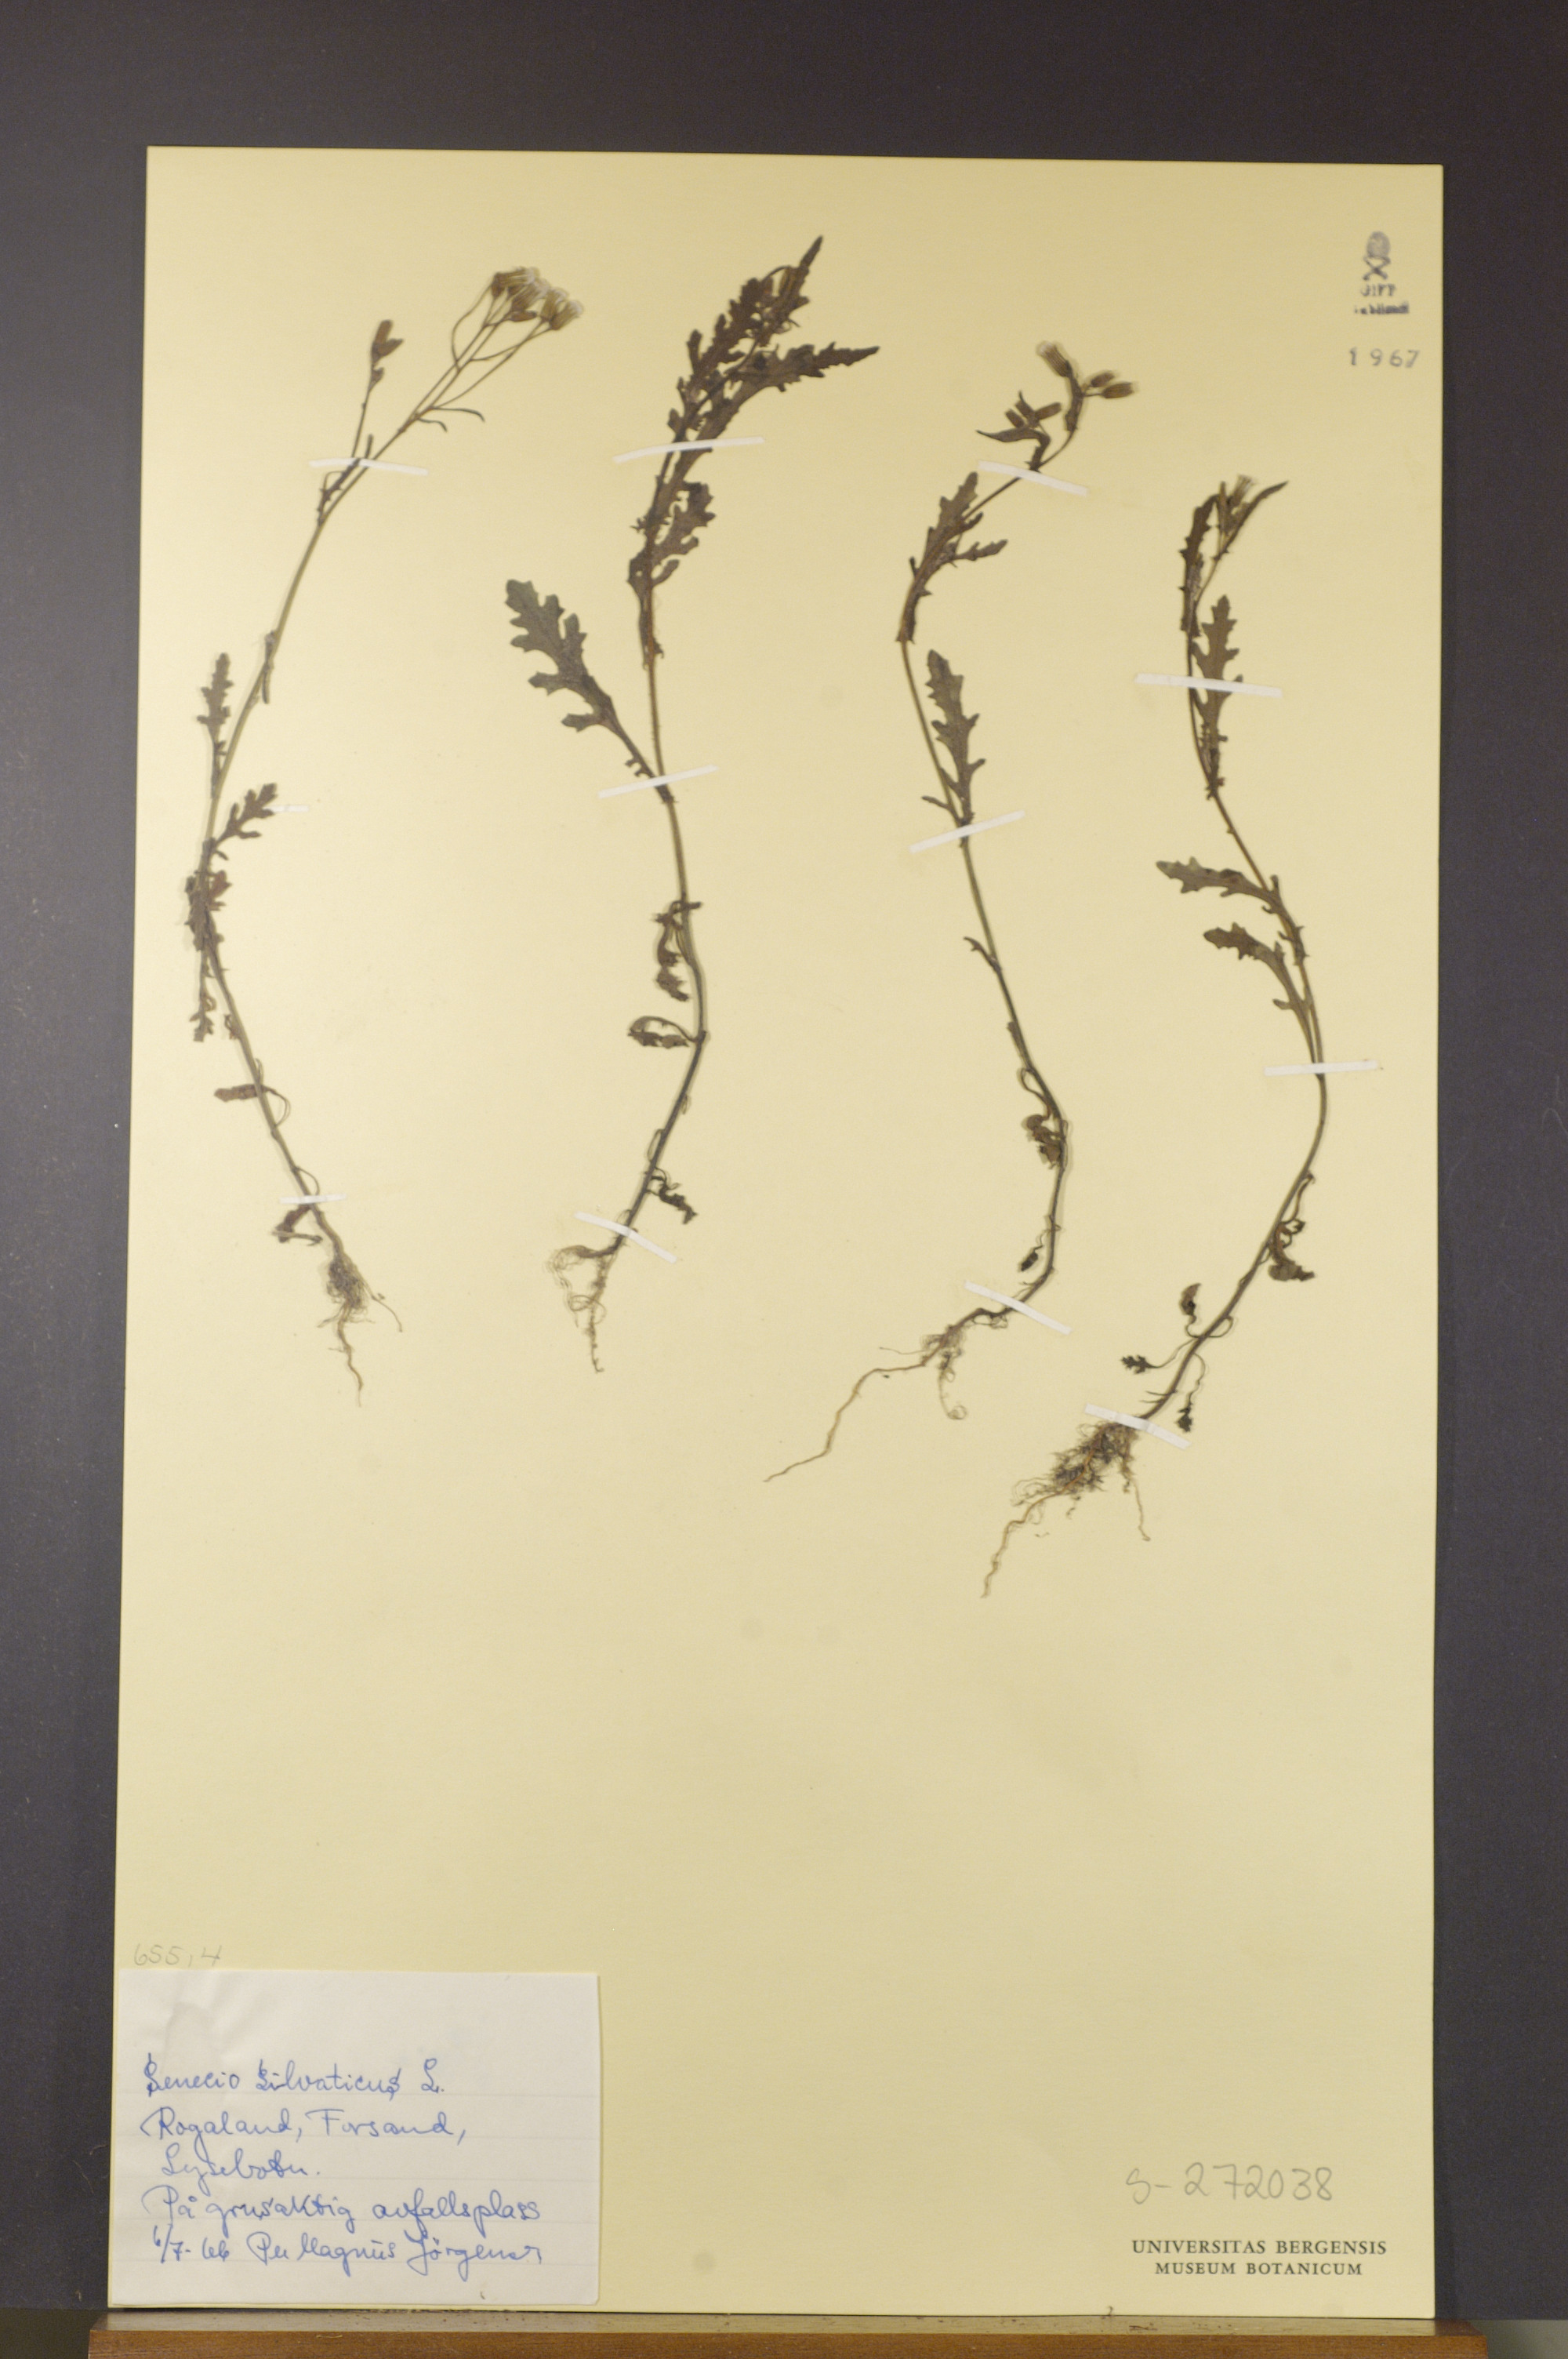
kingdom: Plantae
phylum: Tracheophyta
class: Magnoliopsida
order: Asterales
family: Asteraceae
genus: Senecio
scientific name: Senecio sylvaticus
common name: Woodland ragwort
